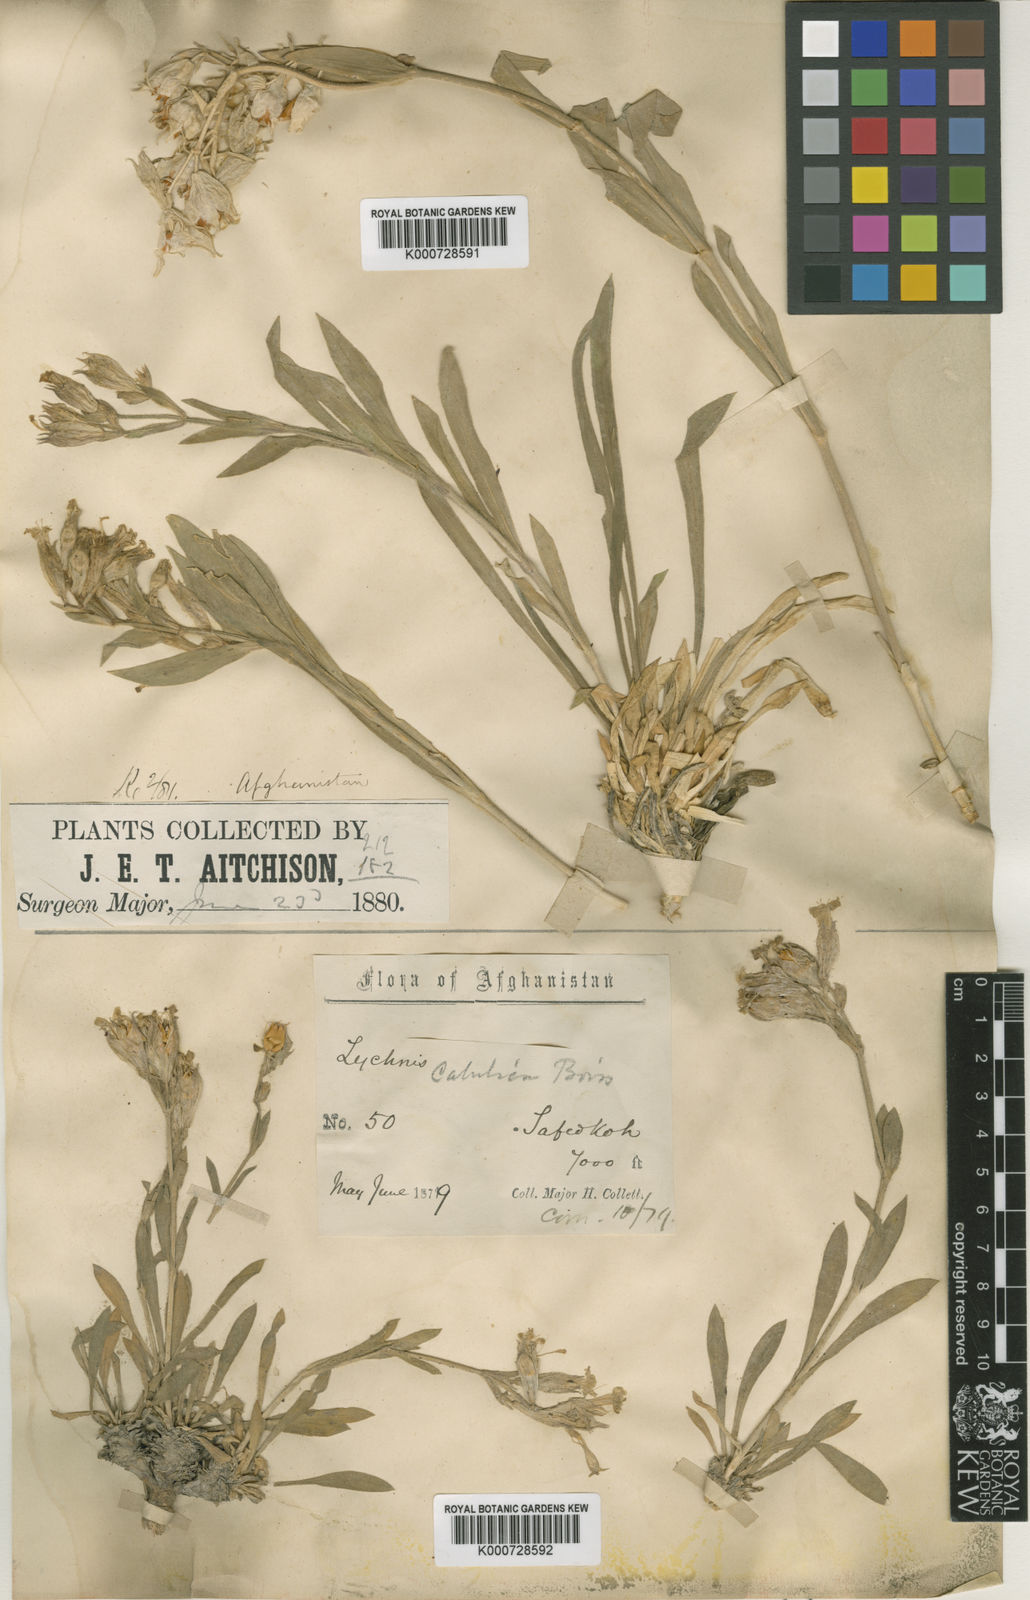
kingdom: Plantae
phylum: Tracheophyta
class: Magnoliopsida
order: Caryophyllales
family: Caryophyllaceae
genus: Silene
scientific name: Silene citrina
